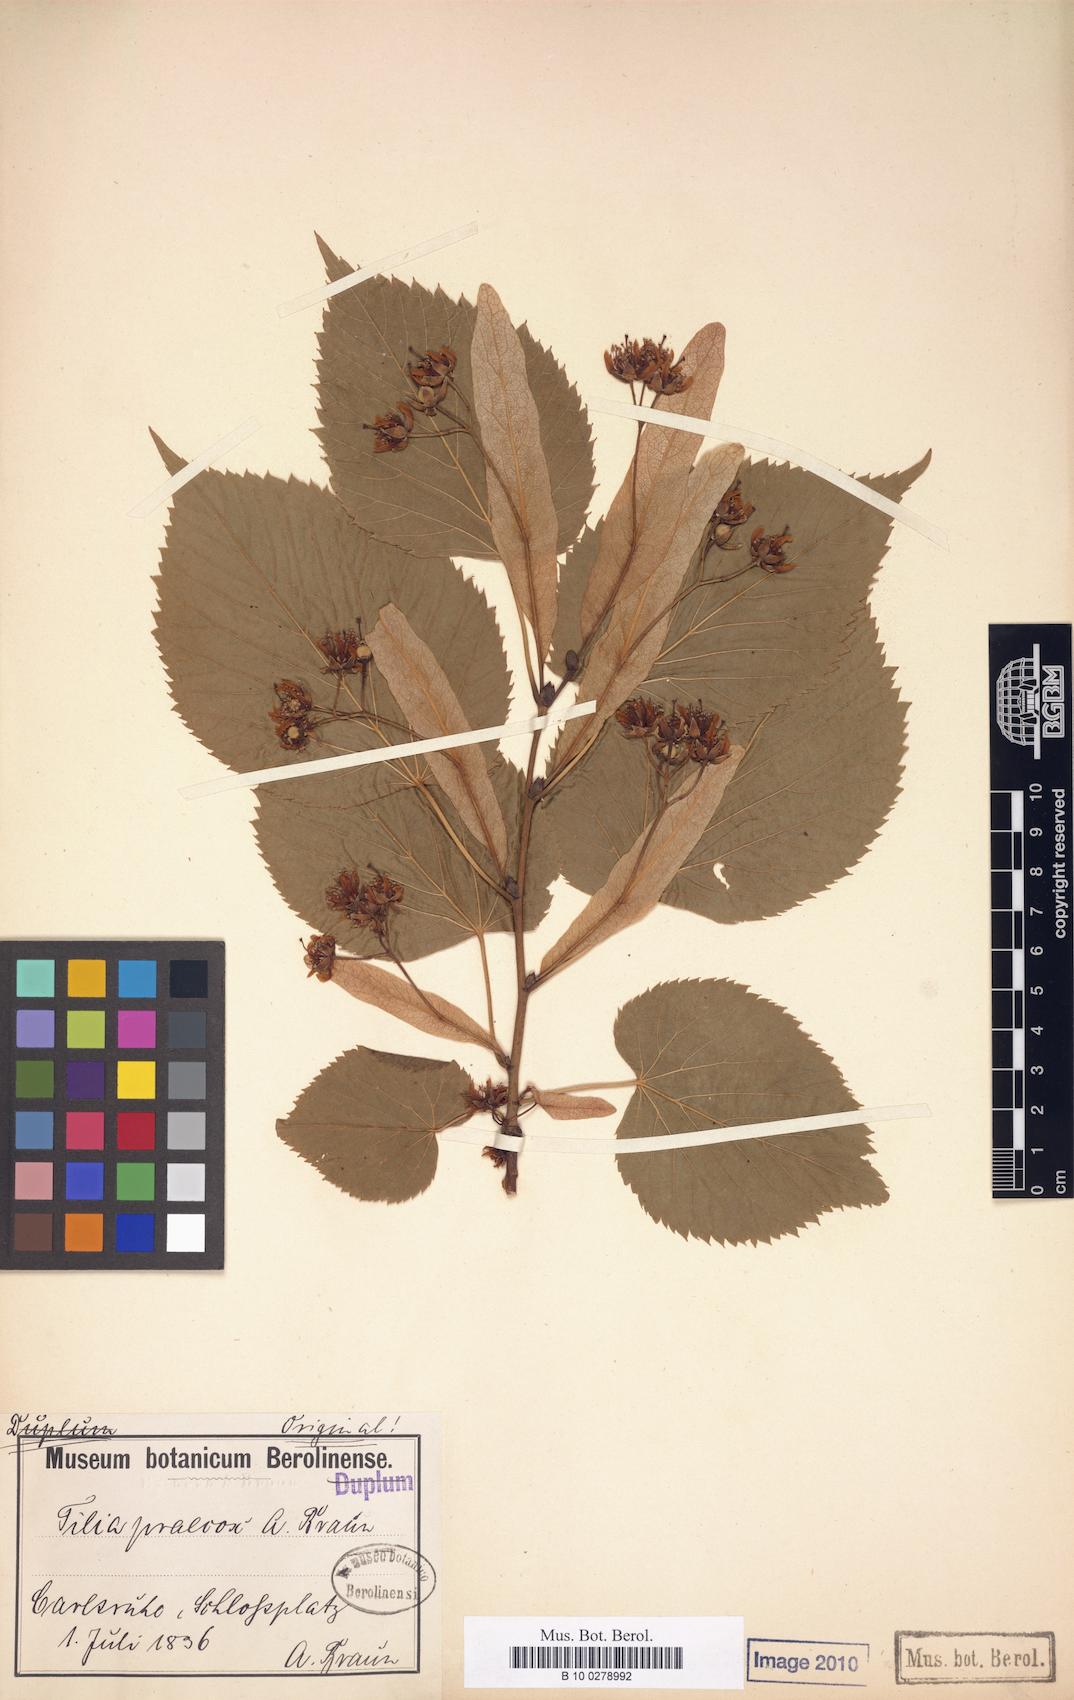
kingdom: Plantae
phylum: Tracheophyta
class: Magnoliopsida
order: Malvales
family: Malvaceae
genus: Tilia
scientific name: Tilia flaccida
